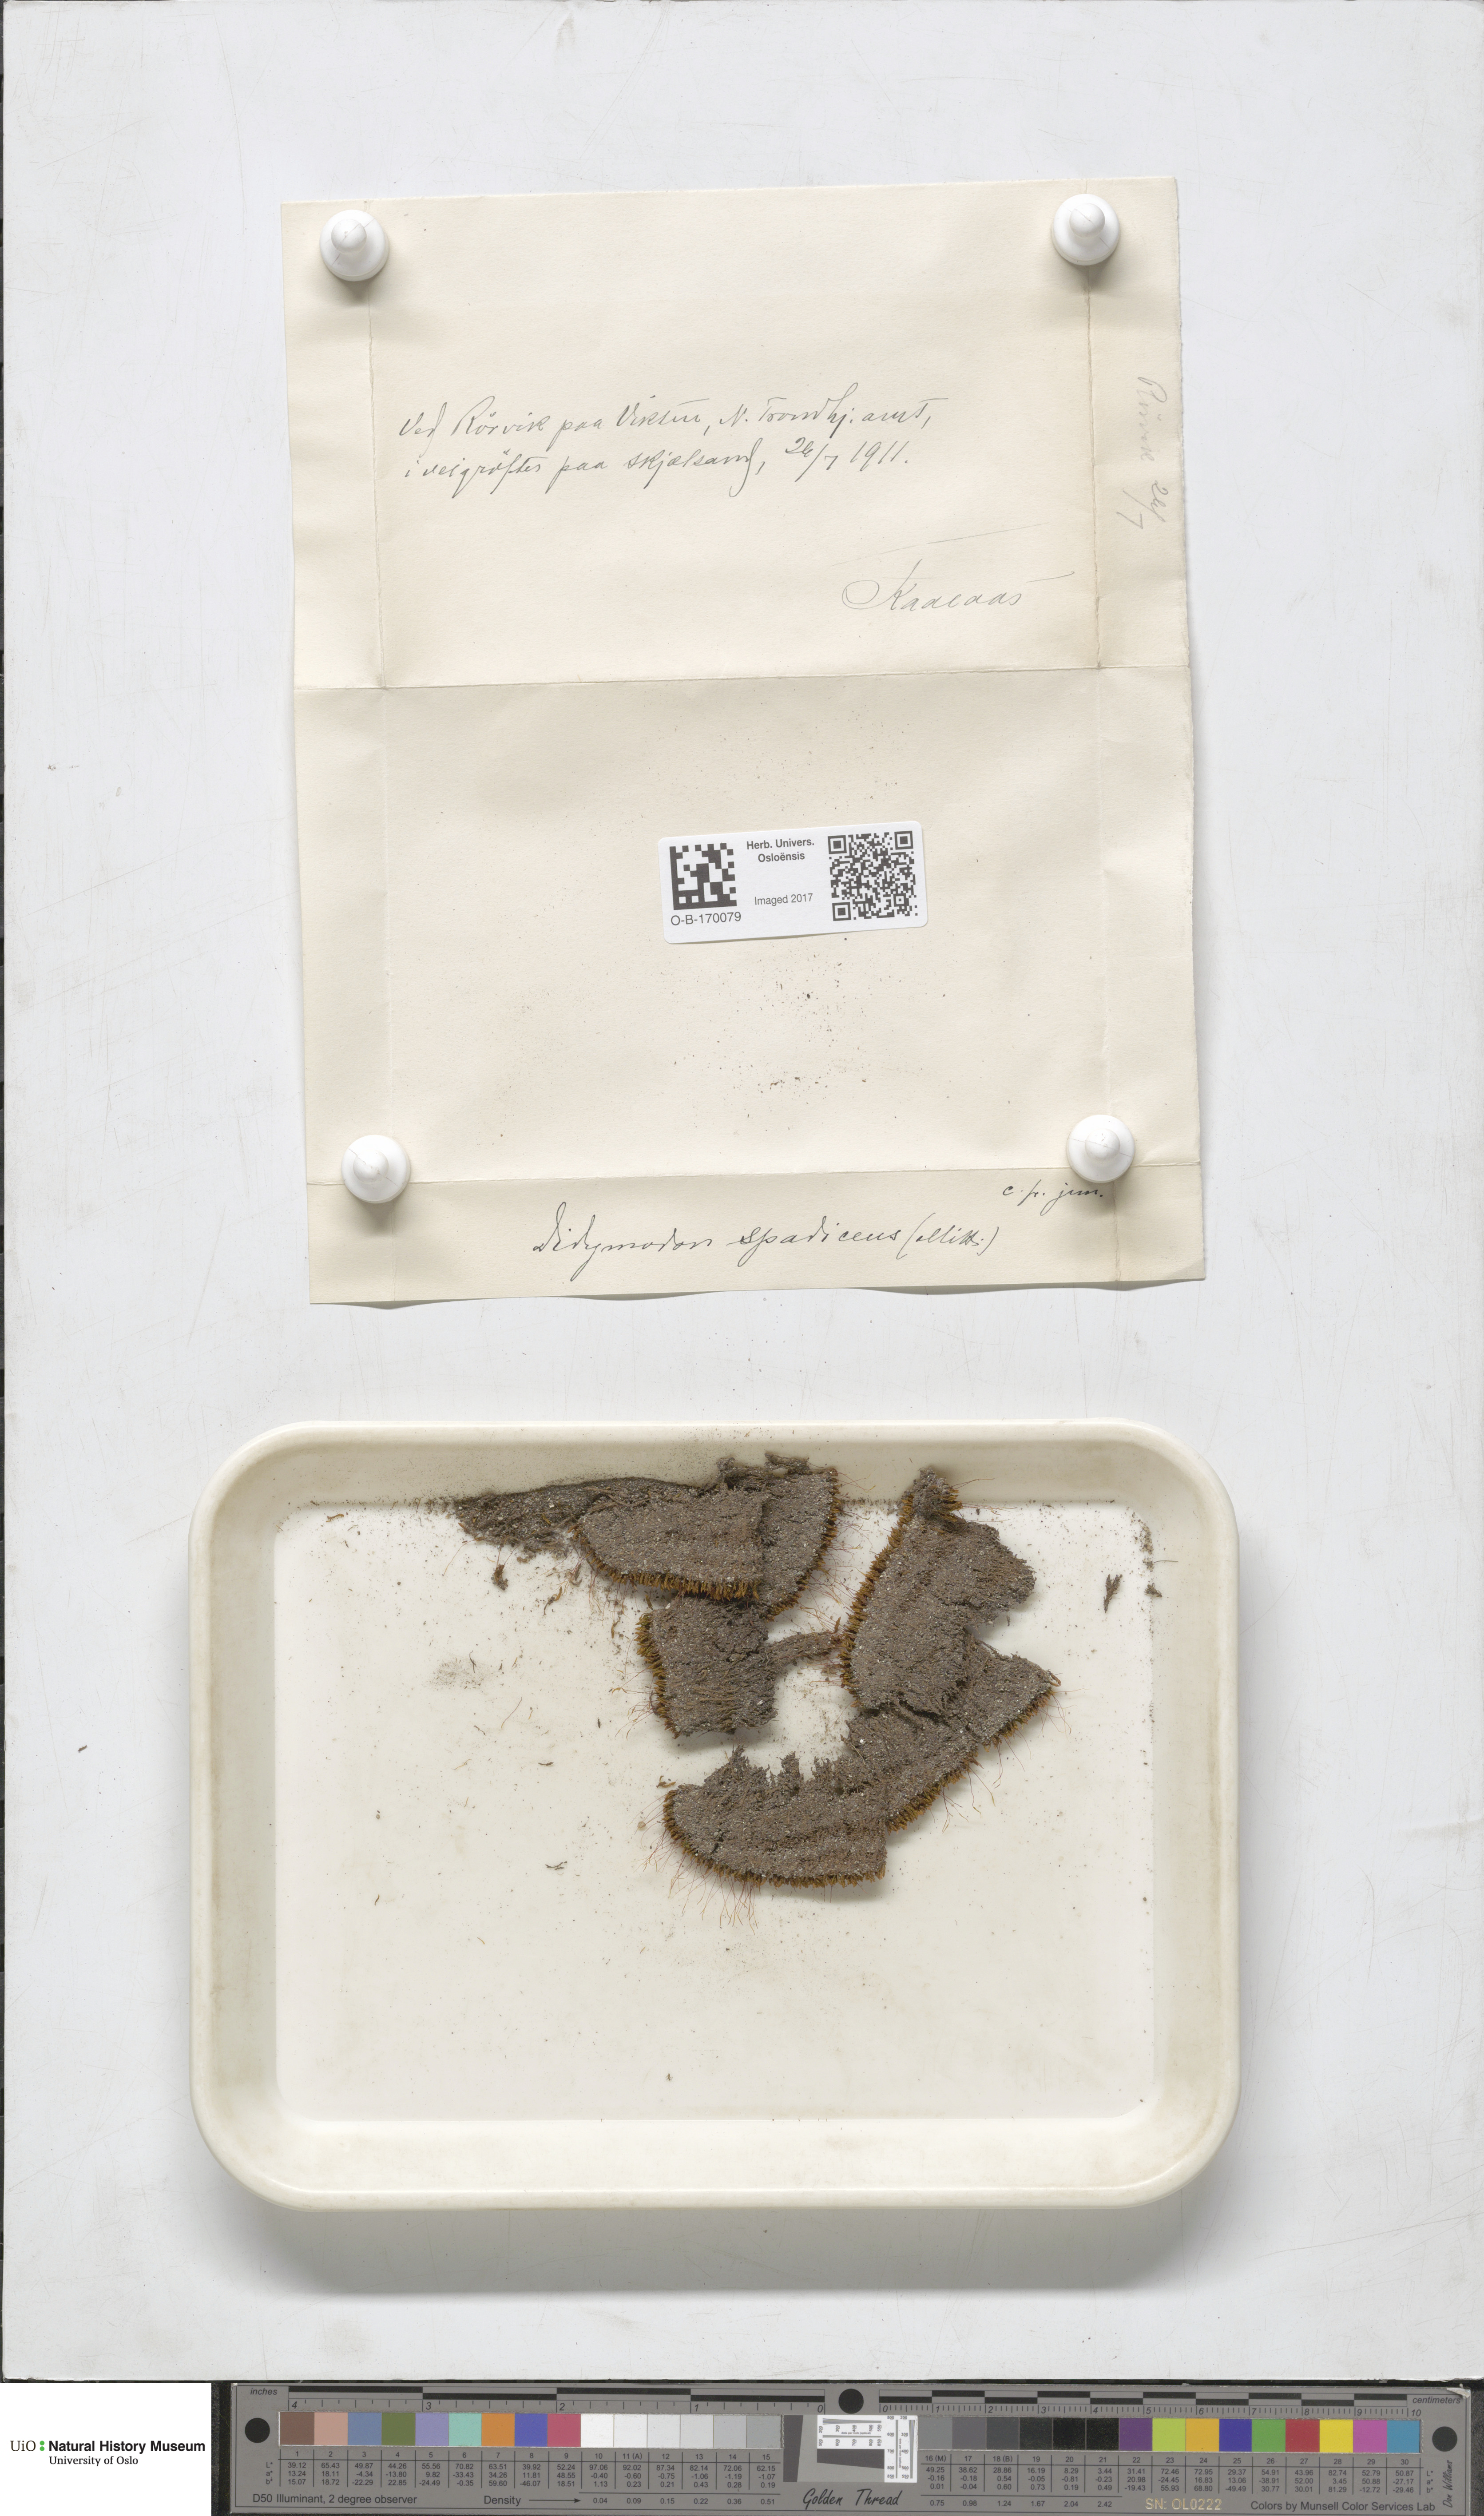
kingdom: Plantae
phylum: Bryophyta
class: Bryopsida
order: Pottiales
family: Pottiaceae
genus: Geheebia
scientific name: Geheebia spadicea
